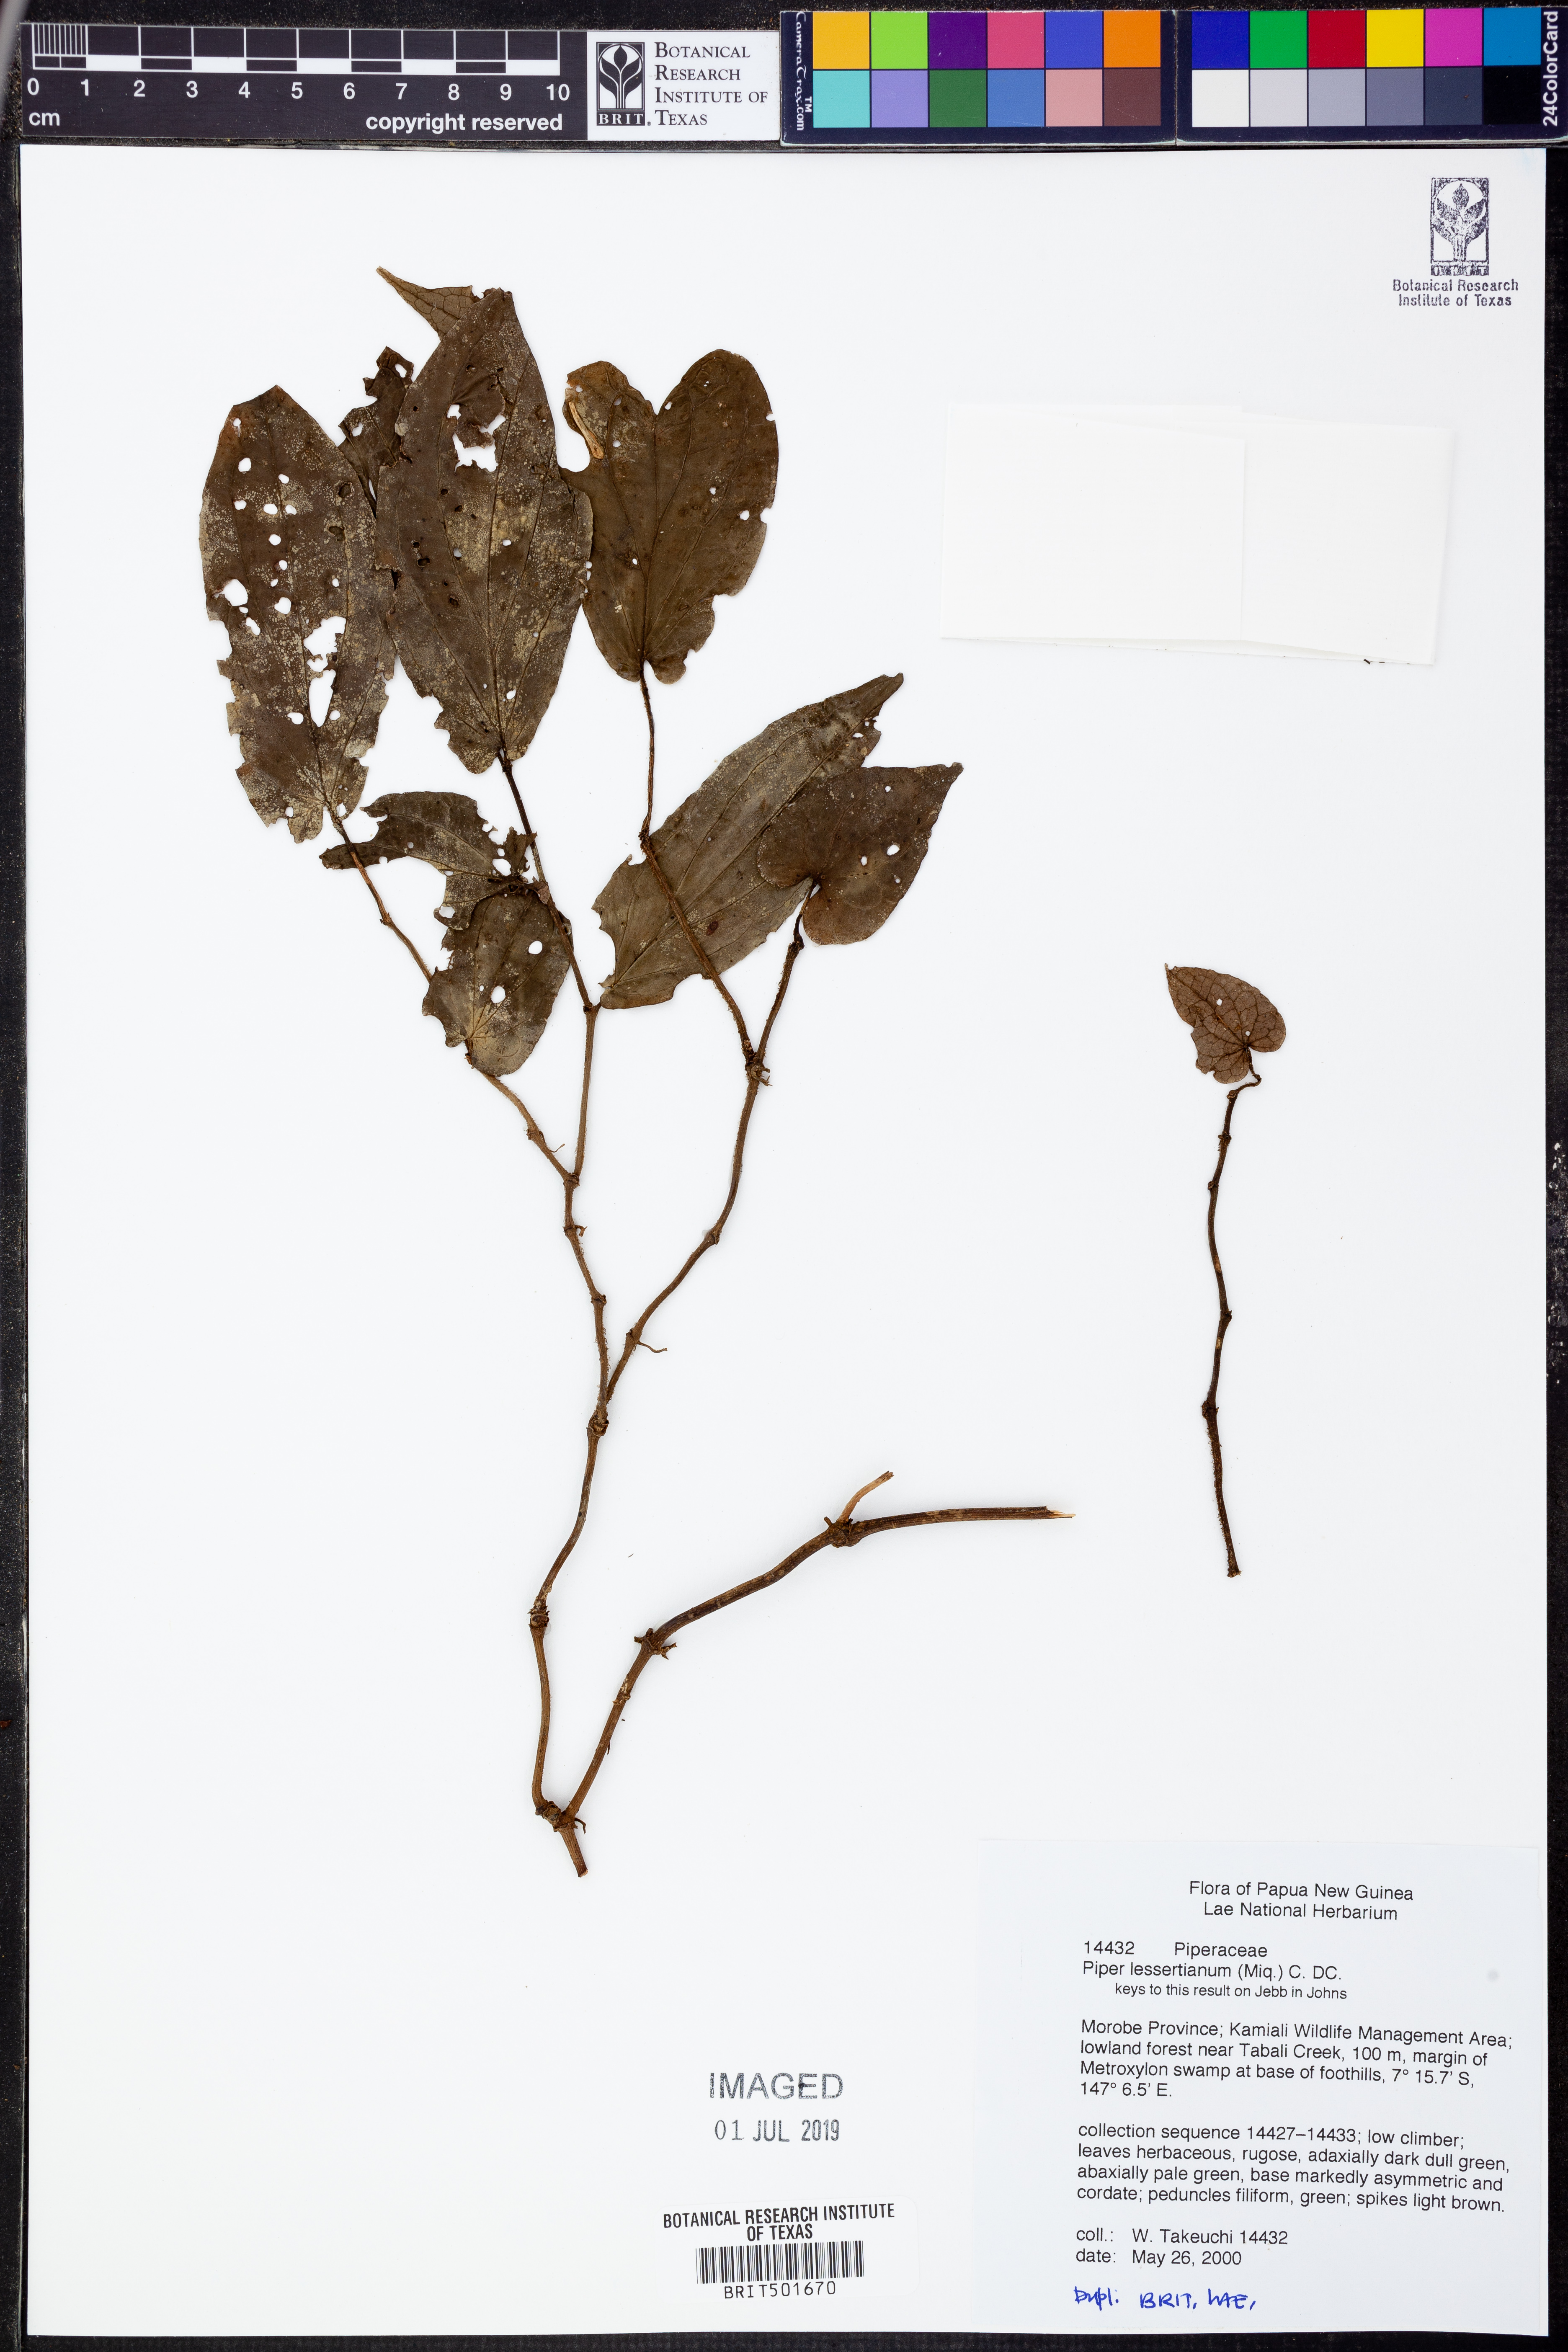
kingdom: Plantae
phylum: Tracheophyta
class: Magnoliopsida
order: Piperales
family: Piperaceae
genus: Piper
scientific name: Piper lessertianum
